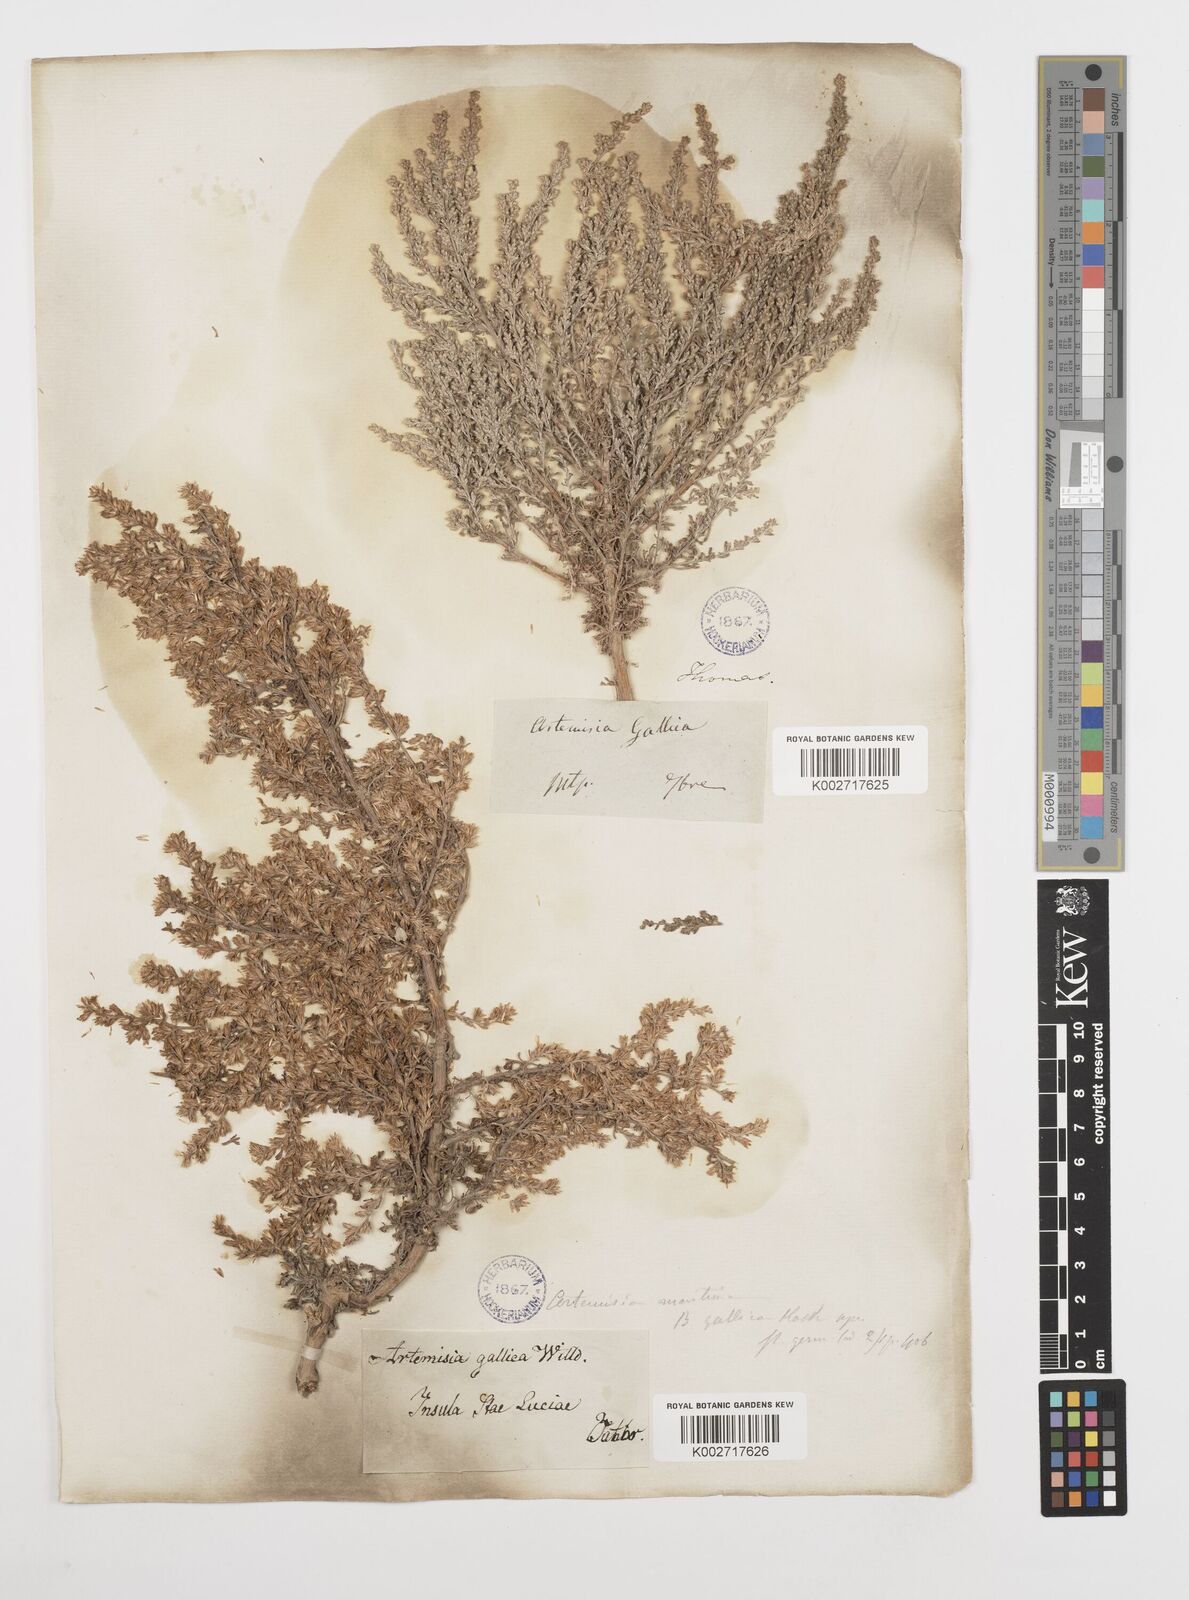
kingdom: Plantae
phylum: Tracheophyta
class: Magnoliopsida
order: Asterales
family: Asteraceae
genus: Artemisia
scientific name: Artemisia campestris
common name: Field wormwood
